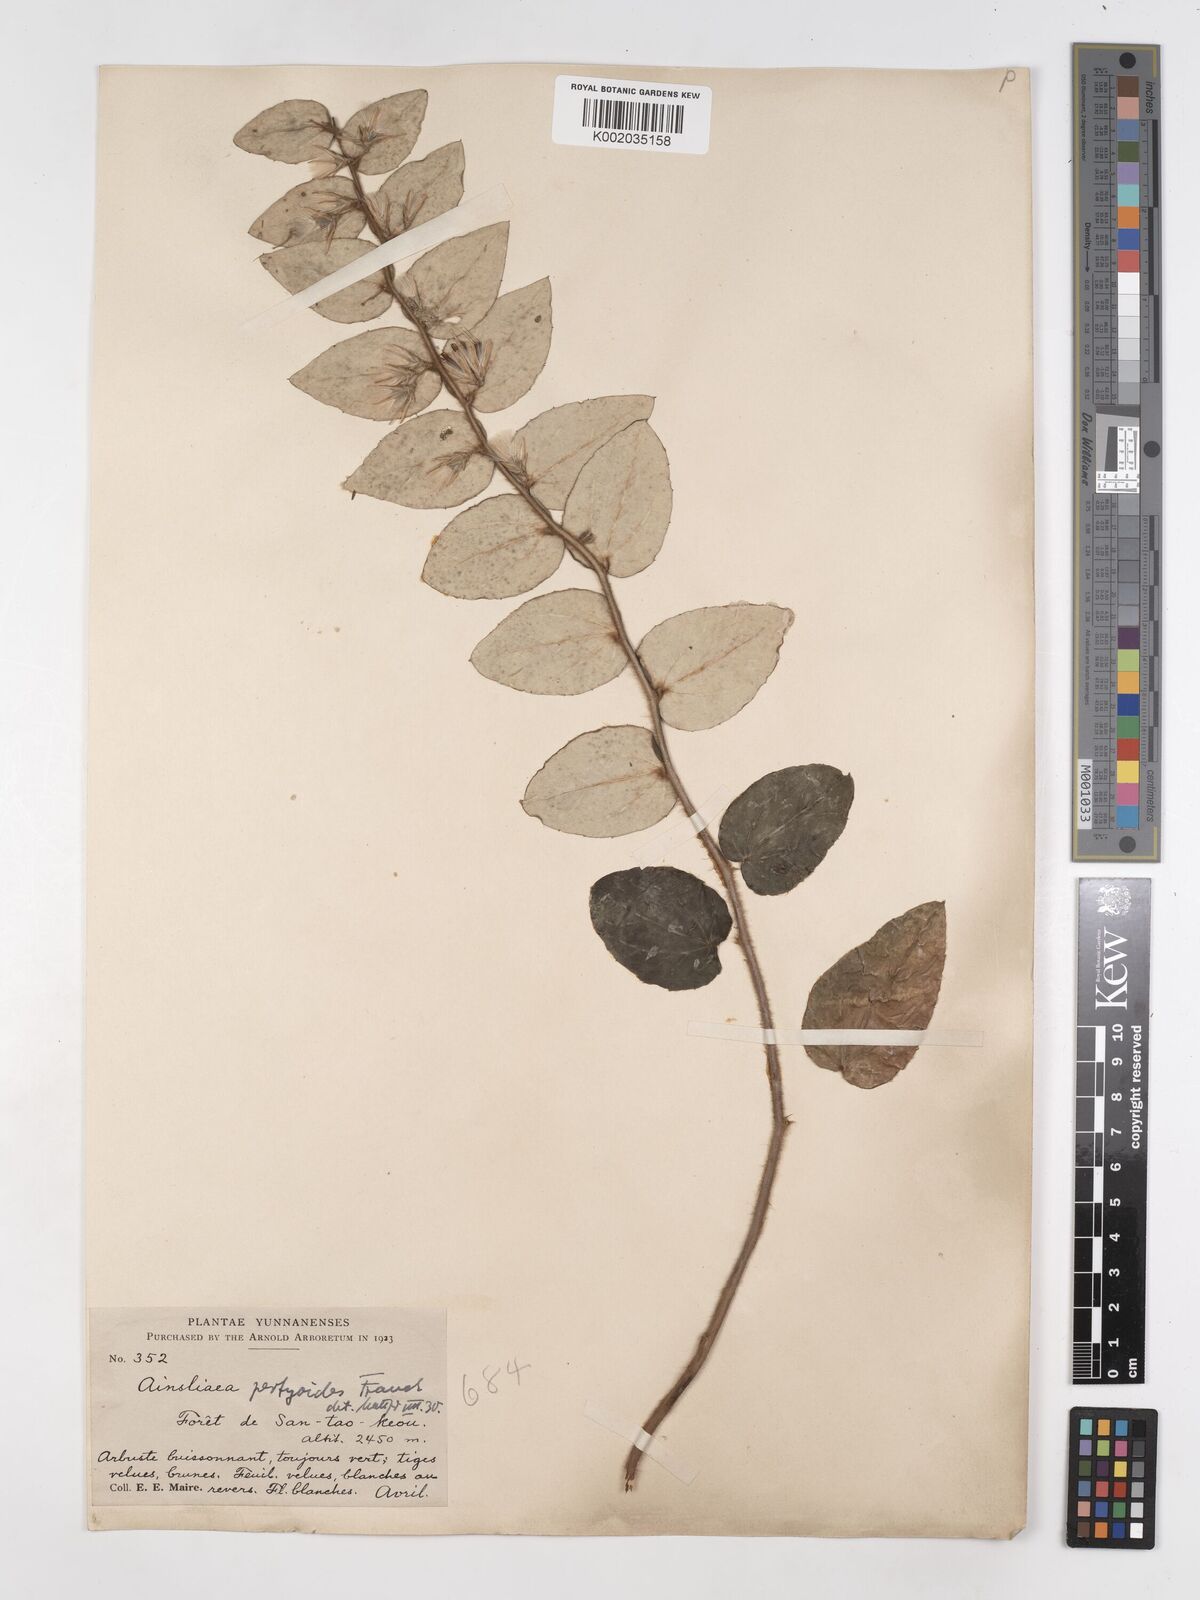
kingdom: Plantae
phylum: Tracheophyta
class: Magnoliopsida
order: Asterales
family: Asteraceae
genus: Ainsliaea
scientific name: Ainsliaea pertyoides
